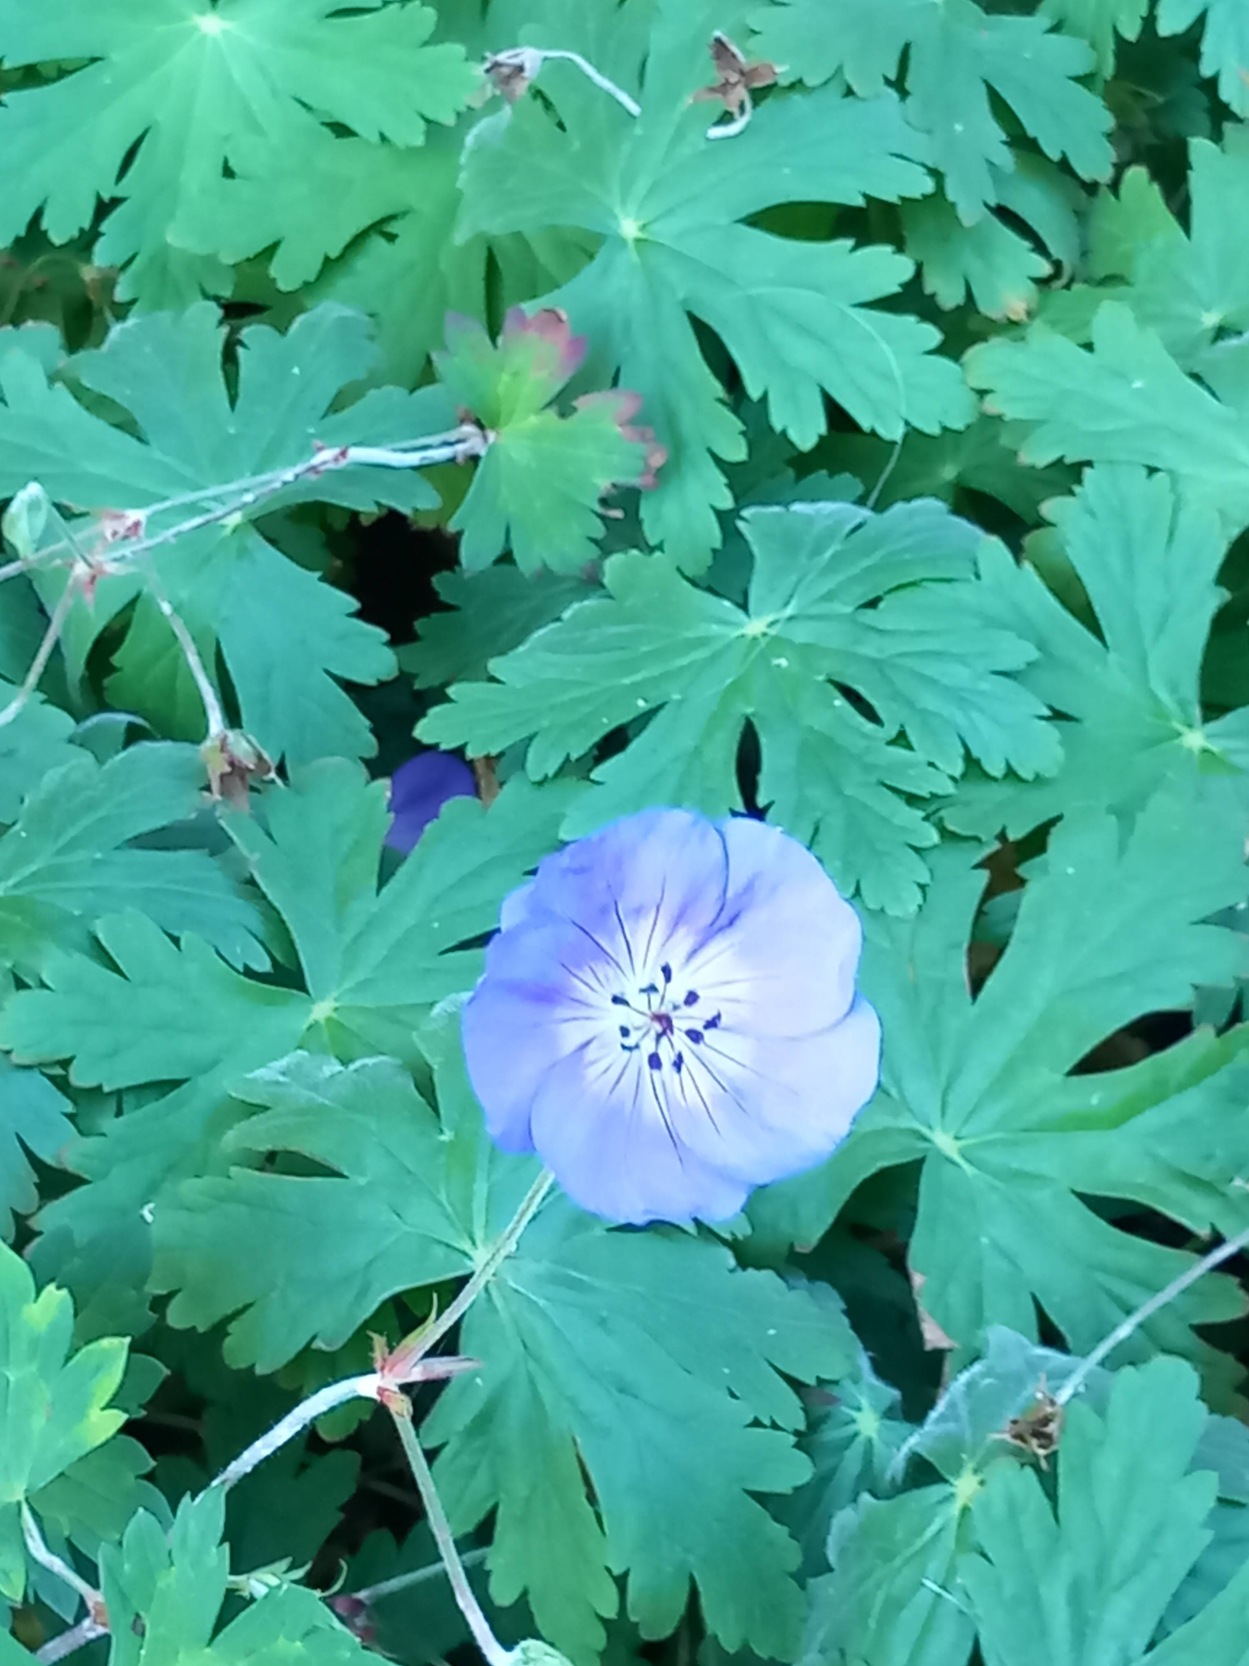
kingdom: Plantae
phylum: Tracheophyta
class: Magnoliopsida
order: Geraniales
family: Geraniaceae
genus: Geranium
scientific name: Geranium
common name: Storkenæbslægten
